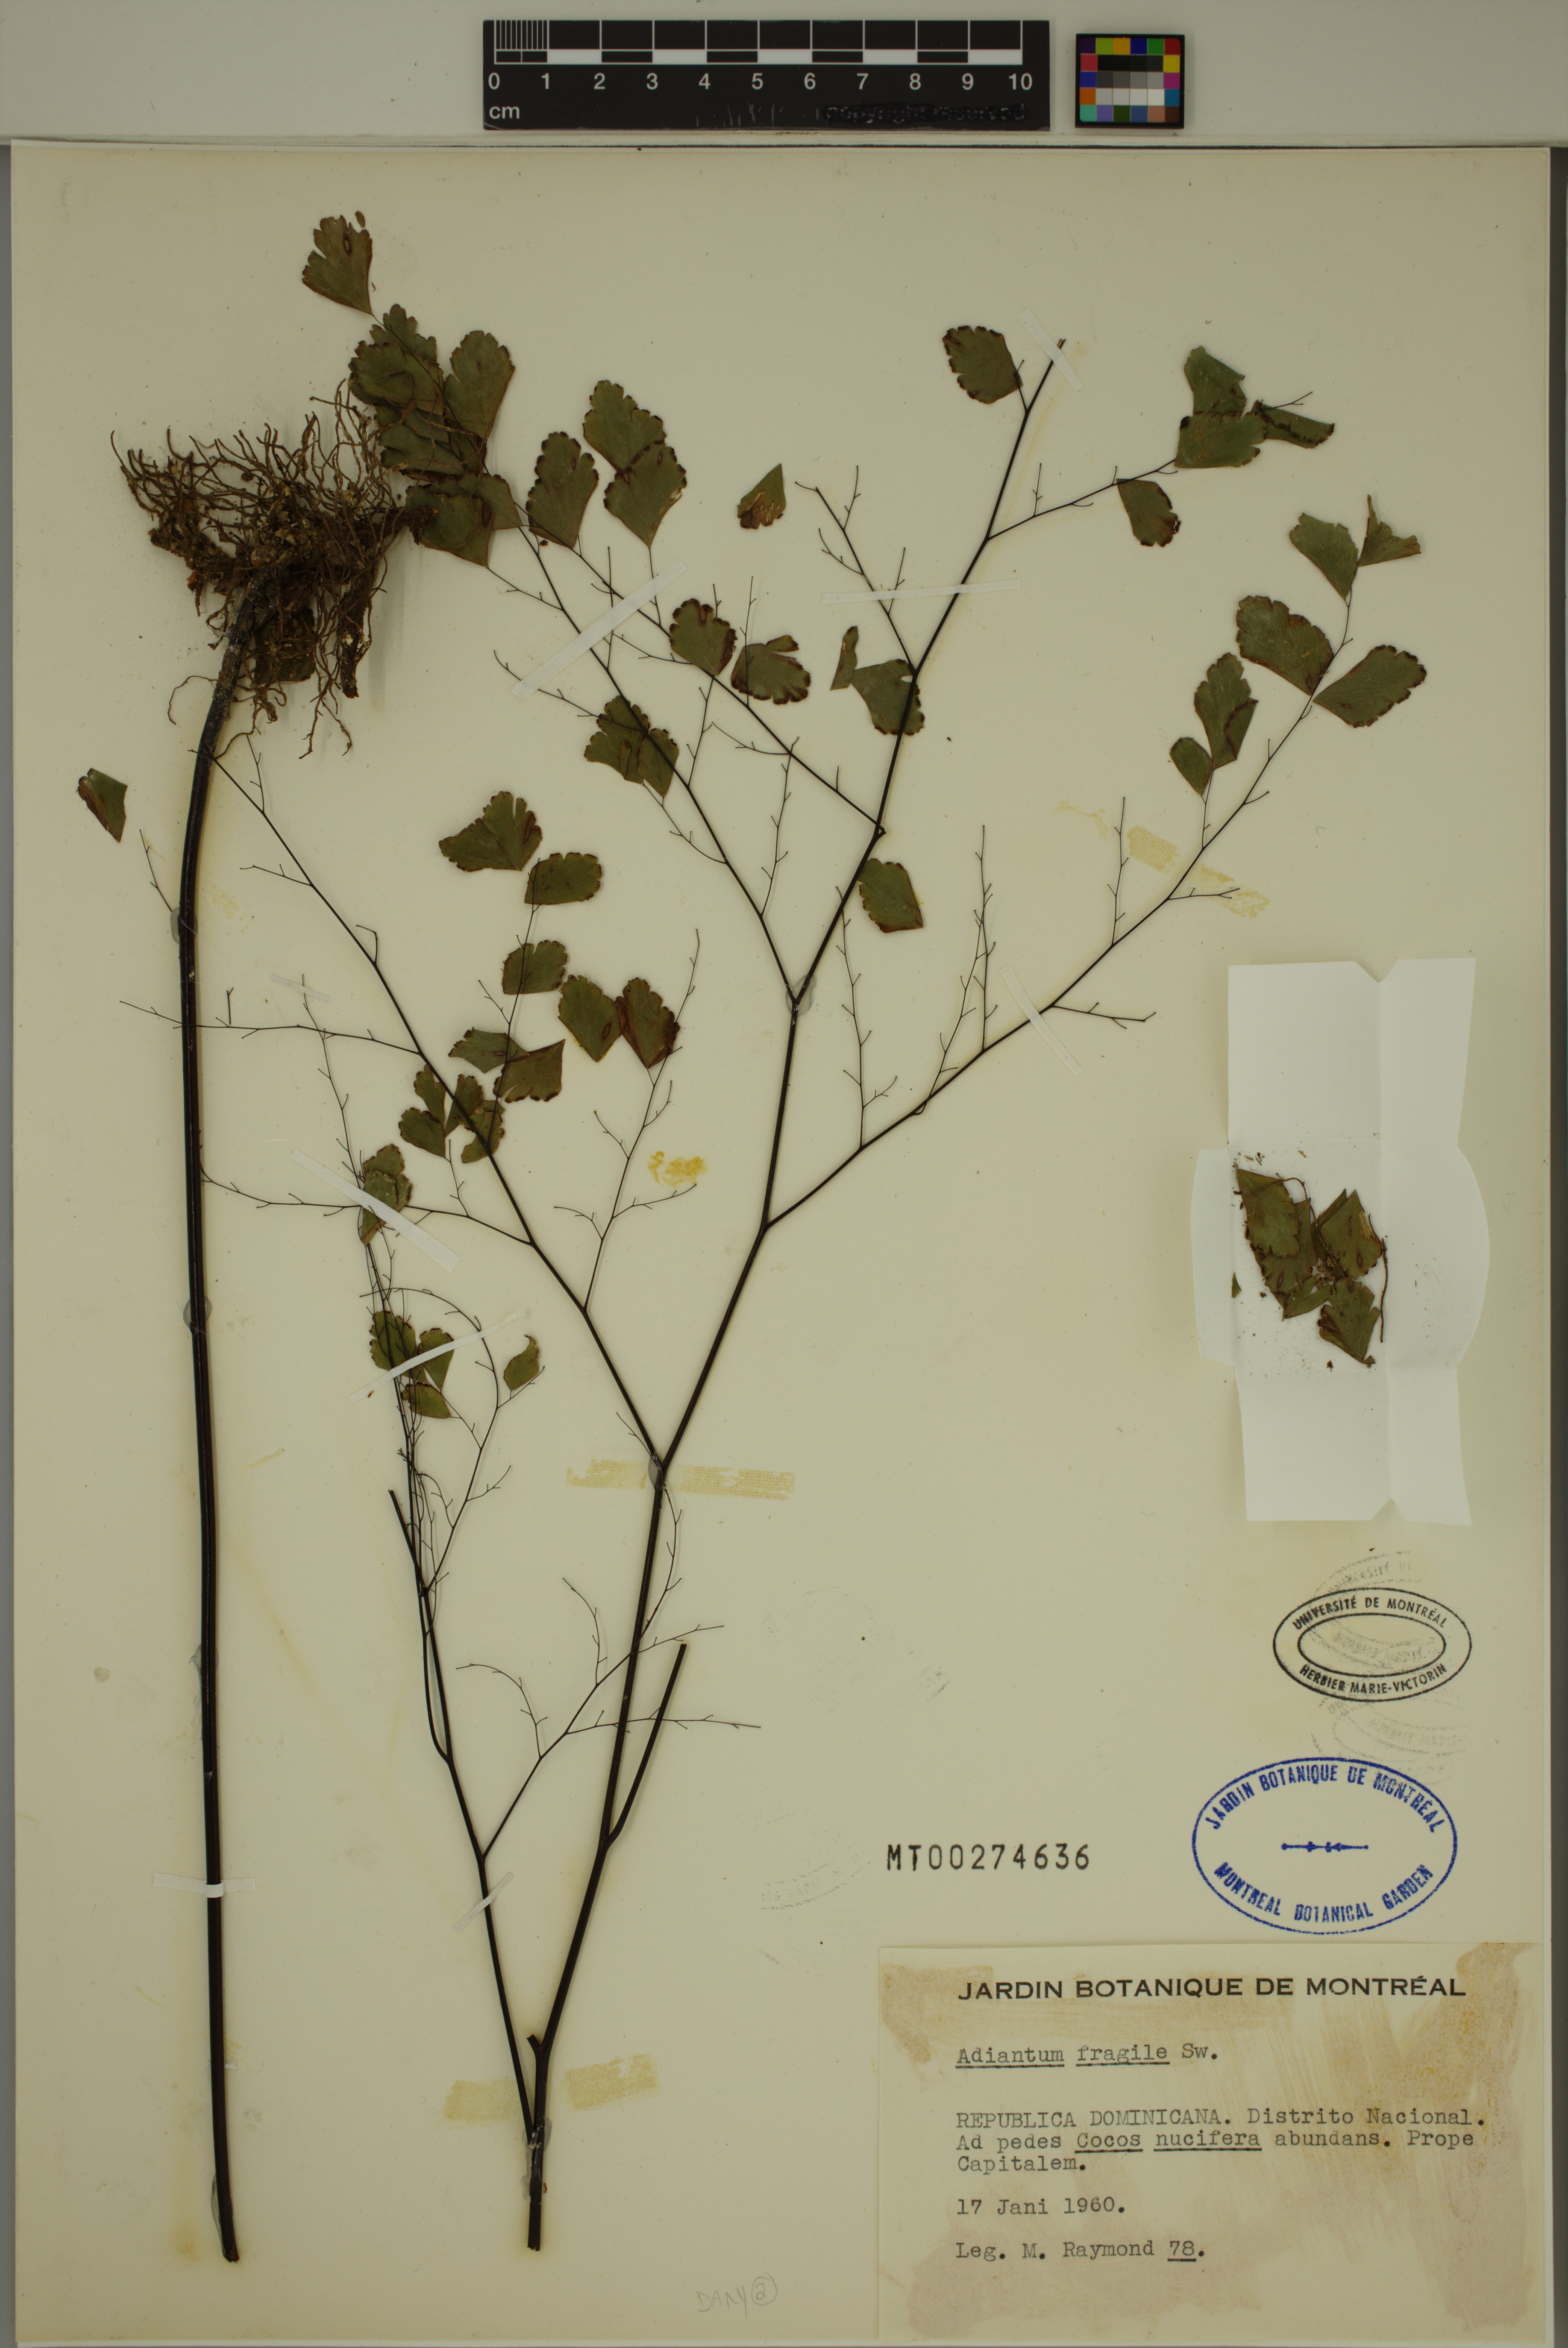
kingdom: Plantae
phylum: Tracheophyta
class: Polypodiopsida
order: Polypodiales
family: Pteridaceae
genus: Adiantum
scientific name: Adiantum fragile
